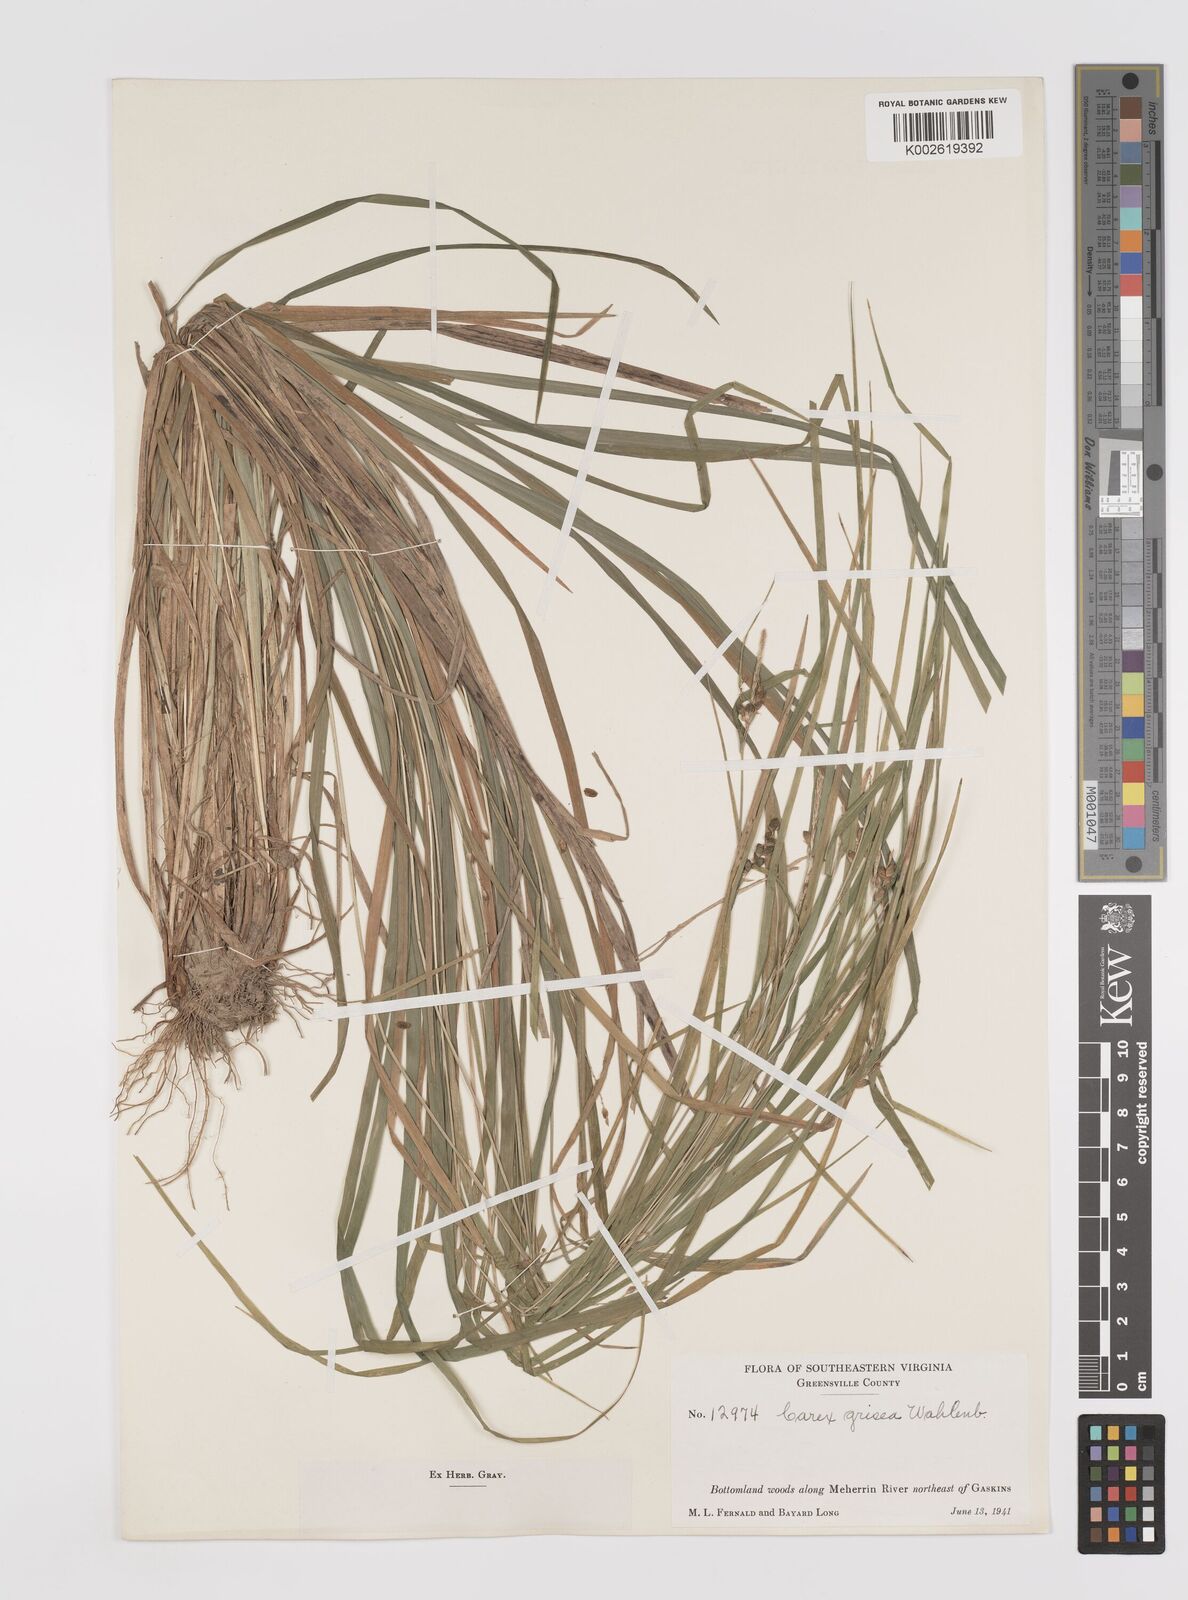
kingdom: Plantae
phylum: Tracheophyta
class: Liliopsida
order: Poales
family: Cyperaceae
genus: Carex
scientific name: Carex grisea
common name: Eastern narrow-leaved sedge
